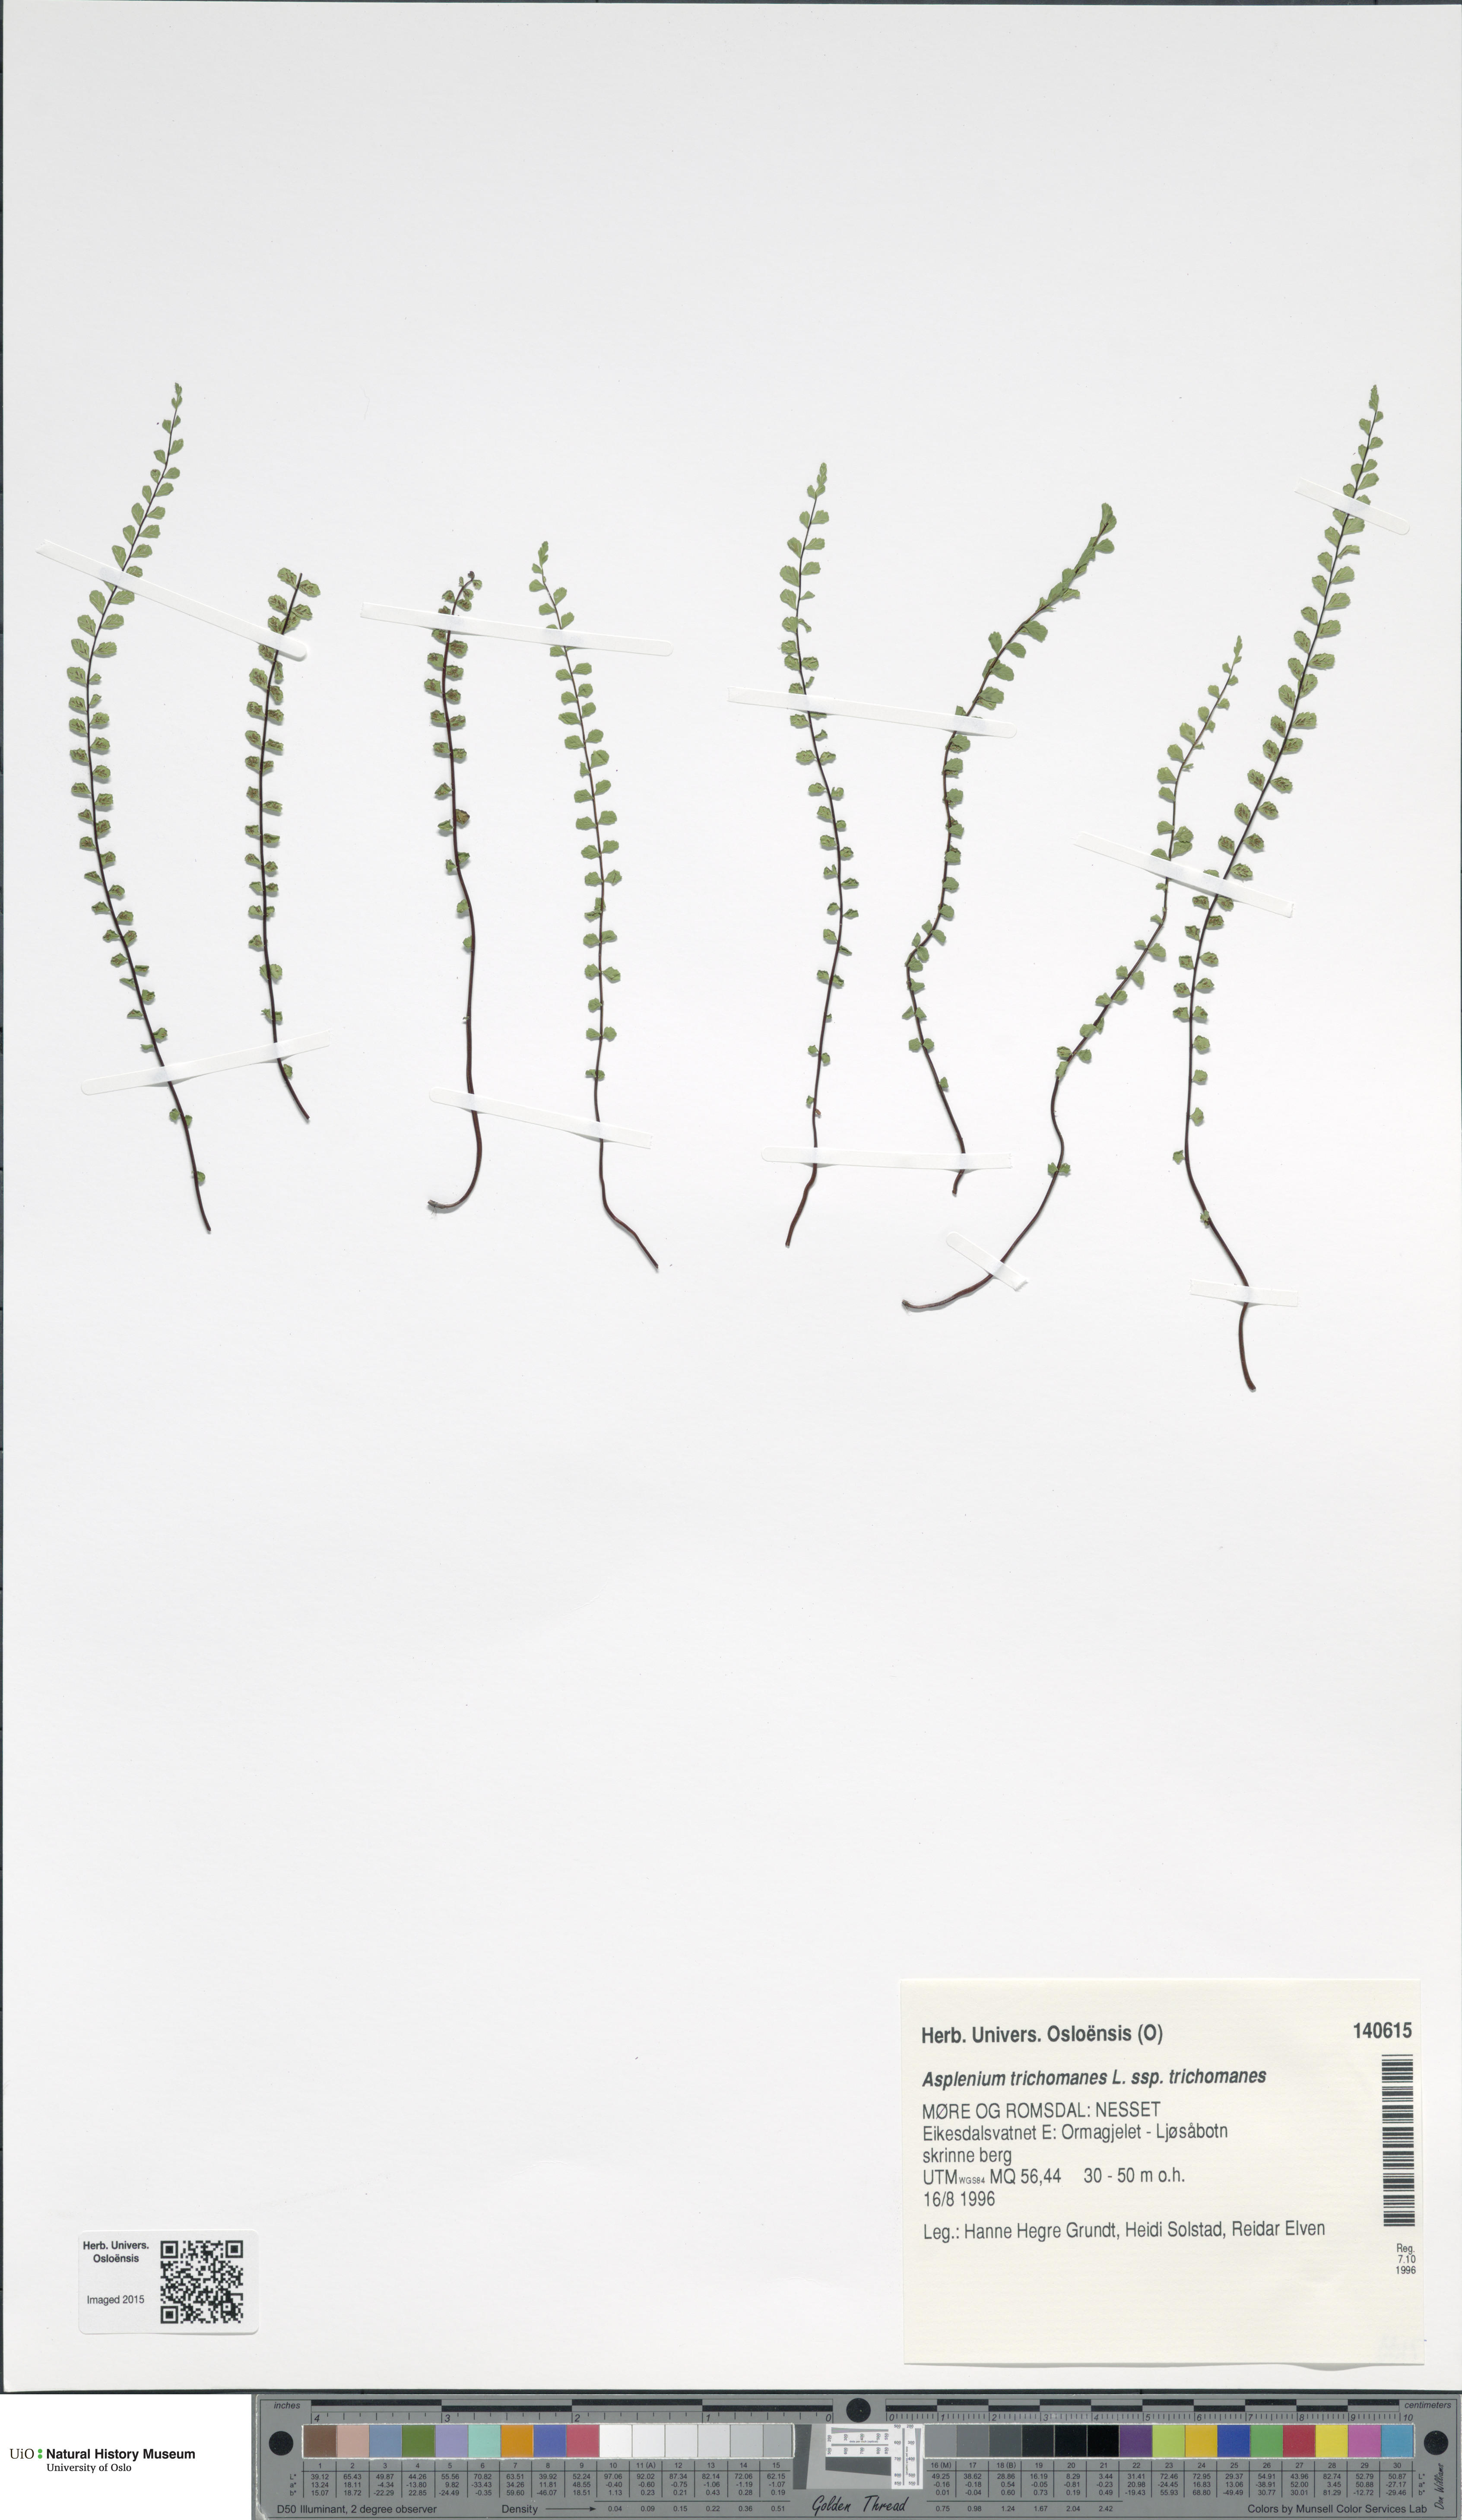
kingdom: Plantae
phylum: Tracheophyta
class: Polypodiopsida
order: Polypodiales
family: Aspleniaceae
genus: Asplenium
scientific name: Asplenium trichomanes
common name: Maidenhair spleenwort
